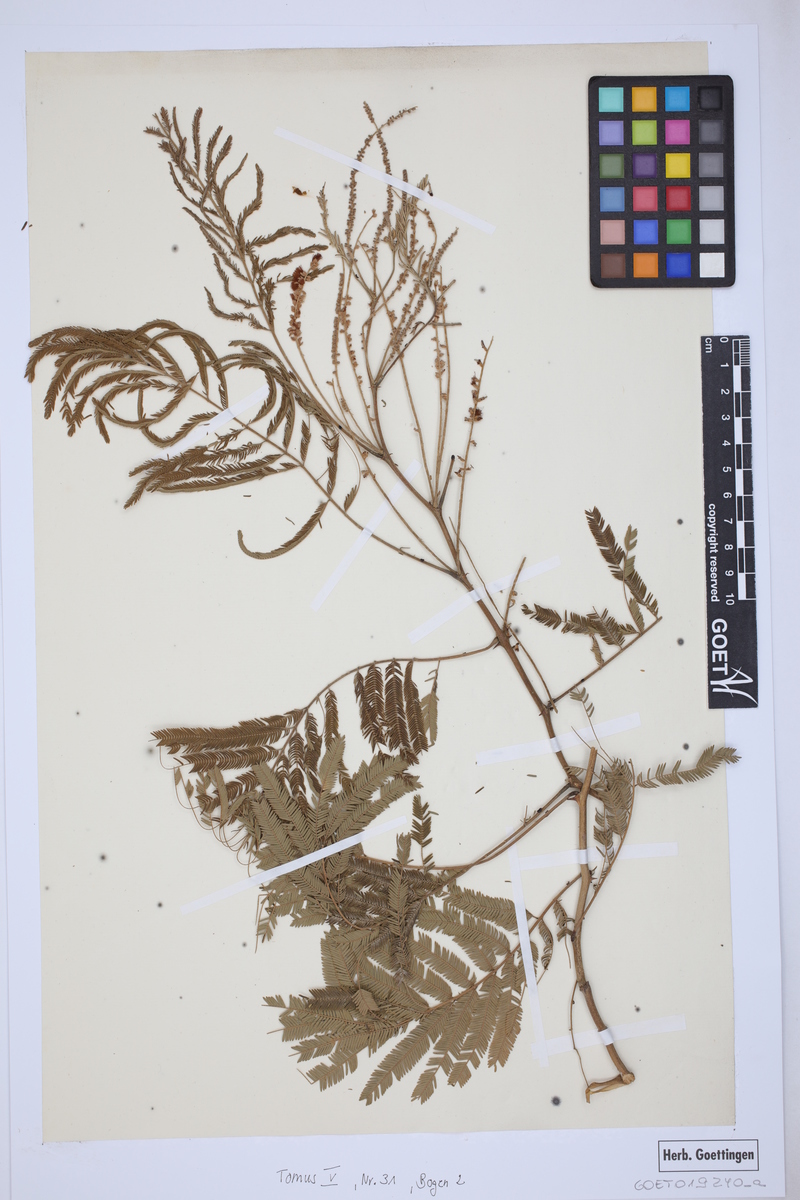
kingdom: Plantae
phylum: Tracheophyta
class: Magnoliopsida
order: Fabales
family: Fabaceae
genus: Senegalia
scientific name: Senegalia caesia
